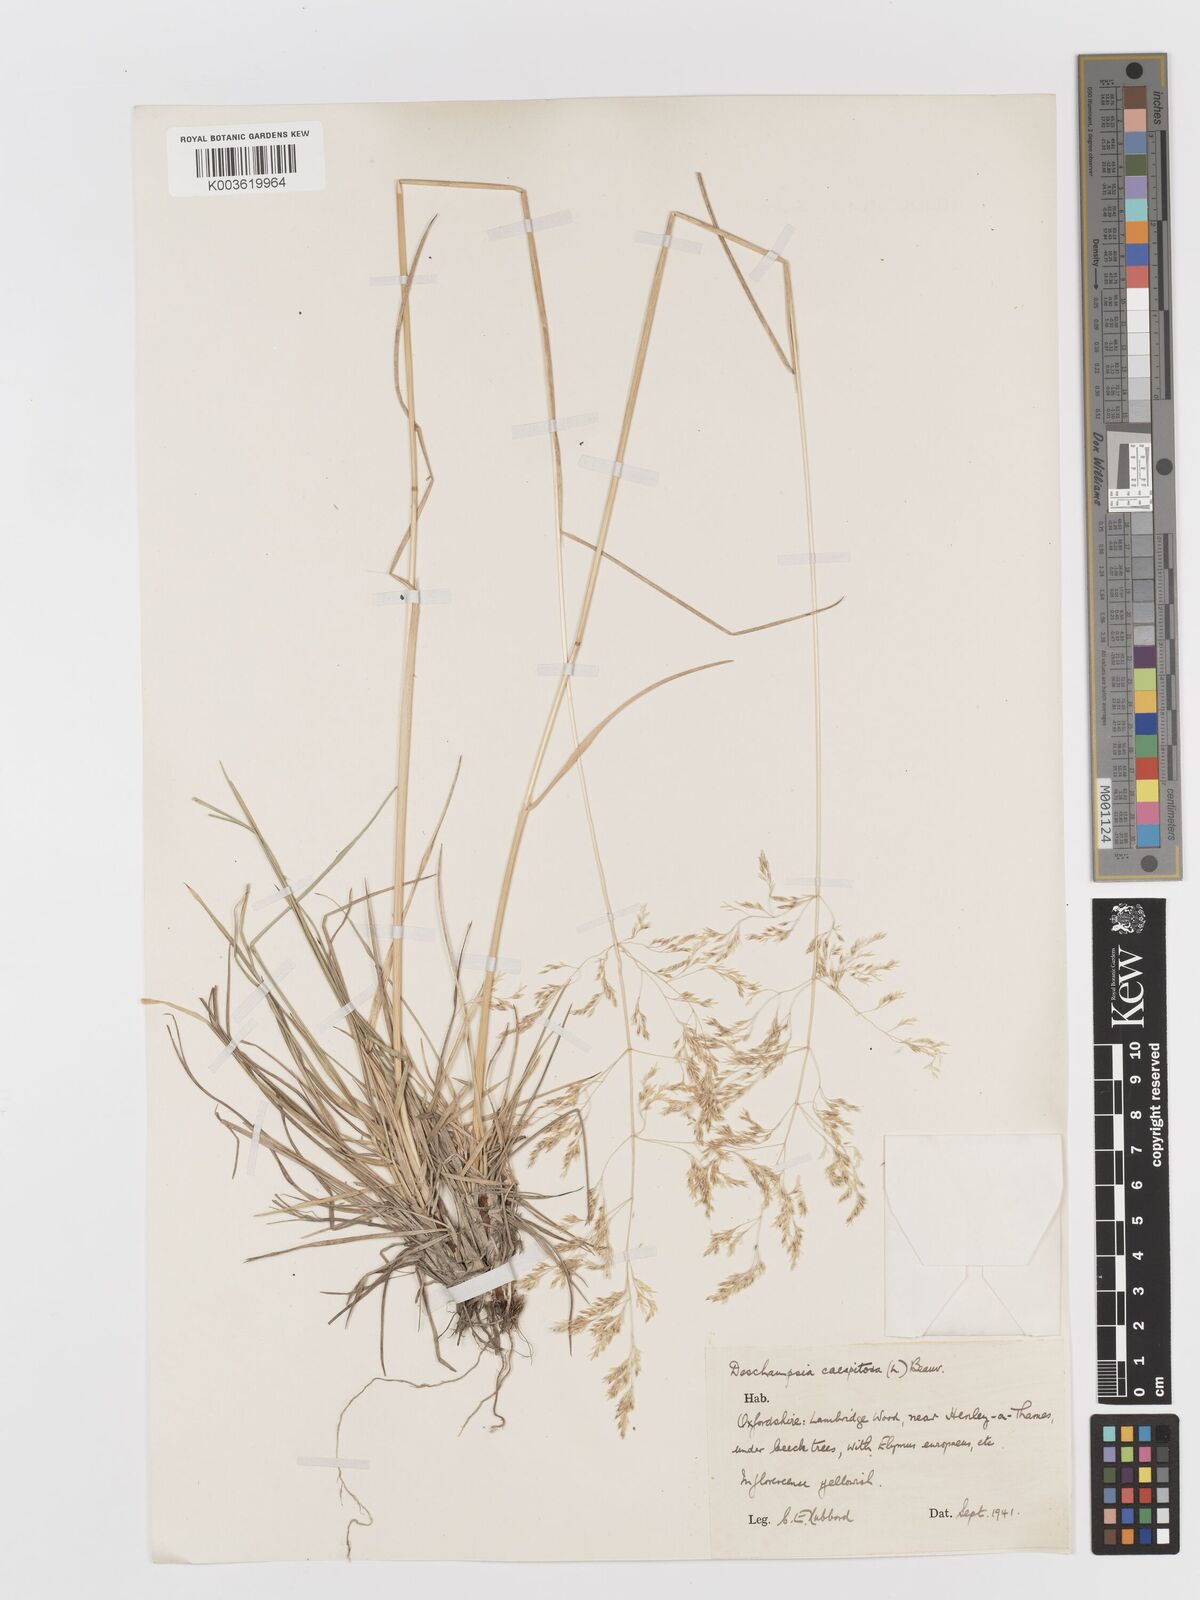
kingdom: Plantae
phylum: Tracheophyta
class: Liliopsida
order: Poales
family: Poaceae
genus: Deschampsia
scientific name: Deschampsia cespitosa
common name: Tufted hair-grass
